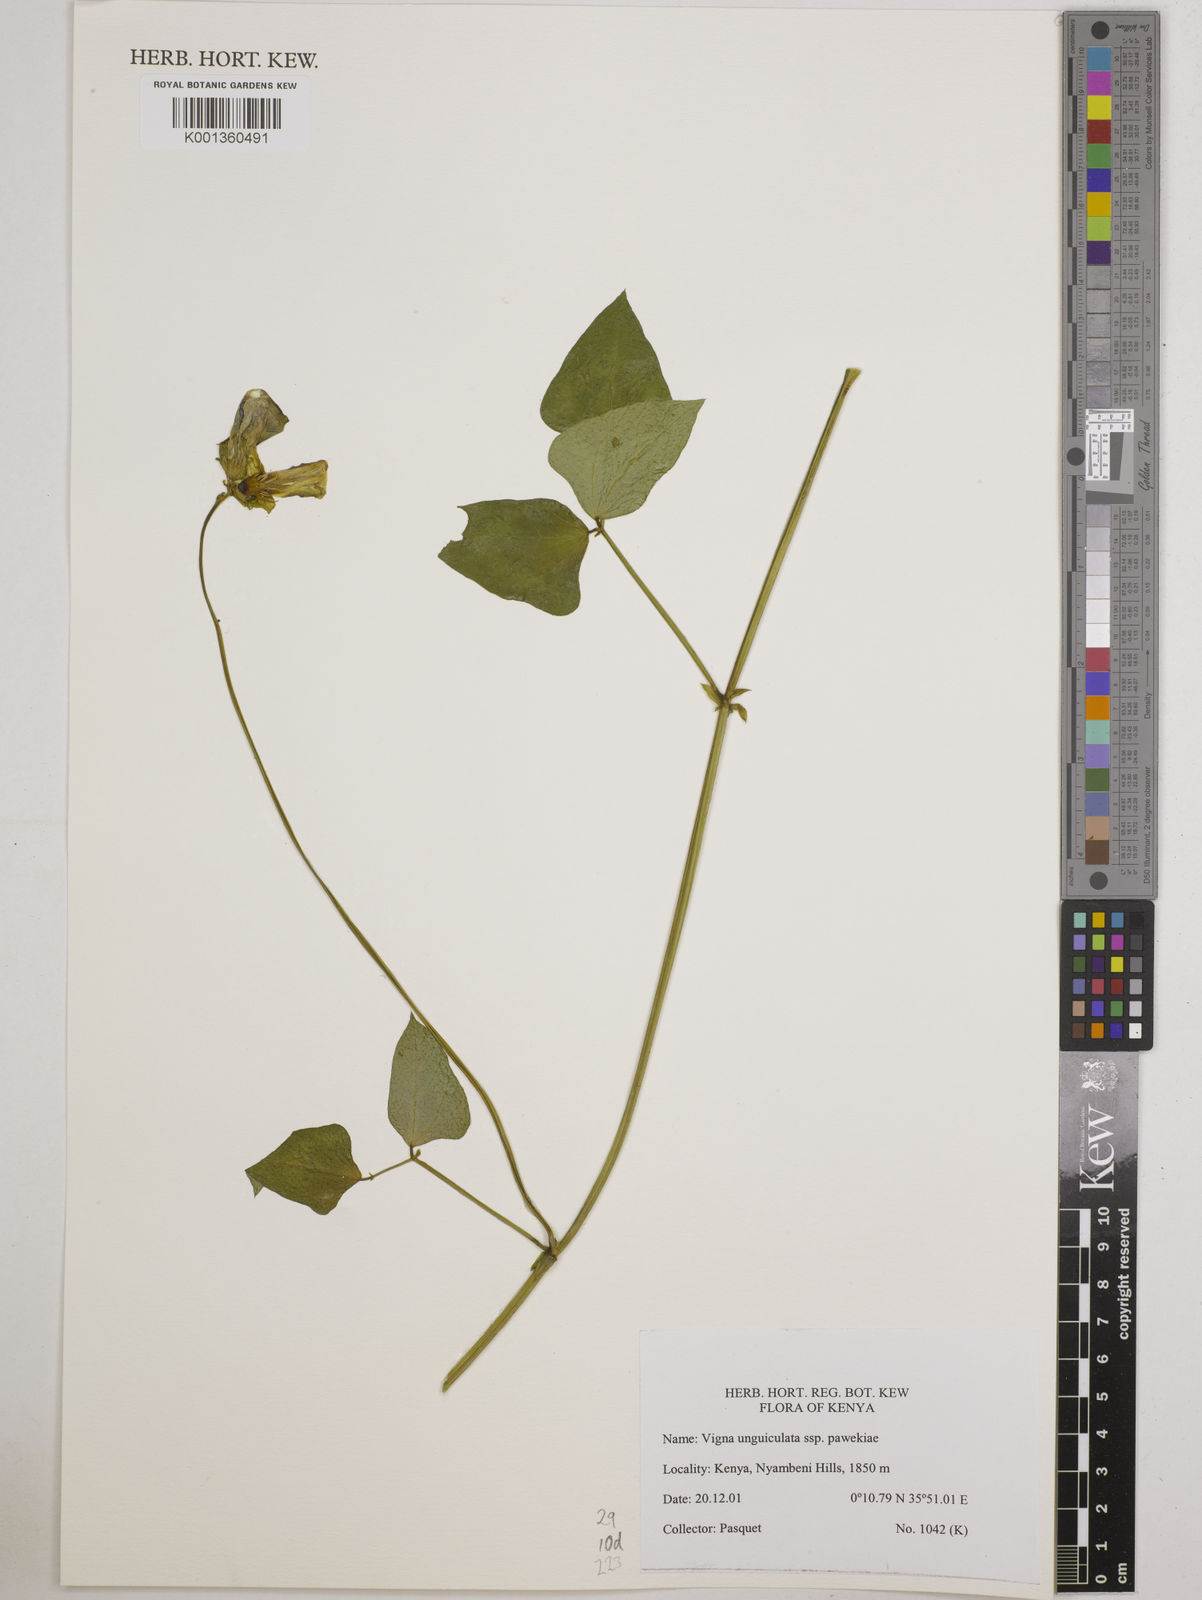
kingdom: Plantae
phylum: Tracheophyta
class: Magnoliopsida
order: Fabales
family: Fabaceae
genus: Vigna
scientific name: Vigna unguiculata
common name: Cowpea
